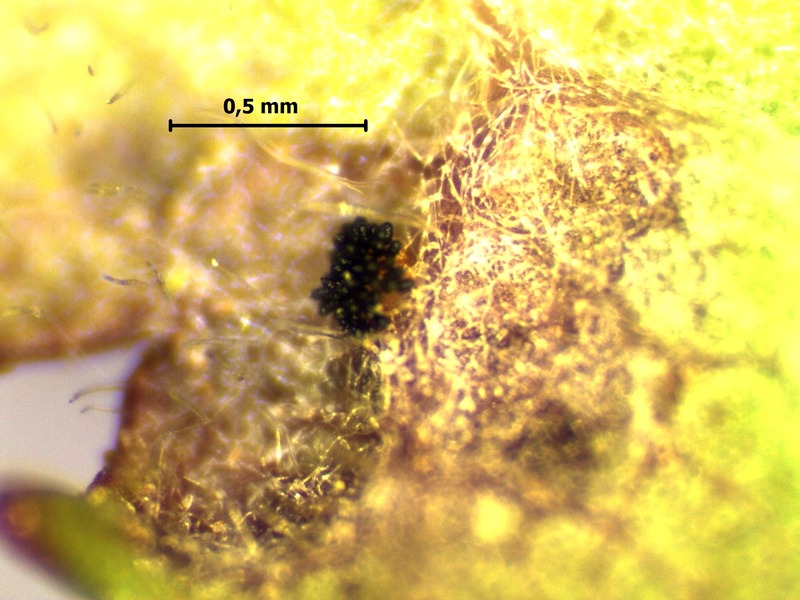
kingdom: Fungi
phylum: Basidiomycota
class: Pucciniomycetes
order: Pucciniales
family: Phragmidiaceae
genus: Phragmidium
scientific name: Phragmidium violaceum
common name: Violet bramble rust
